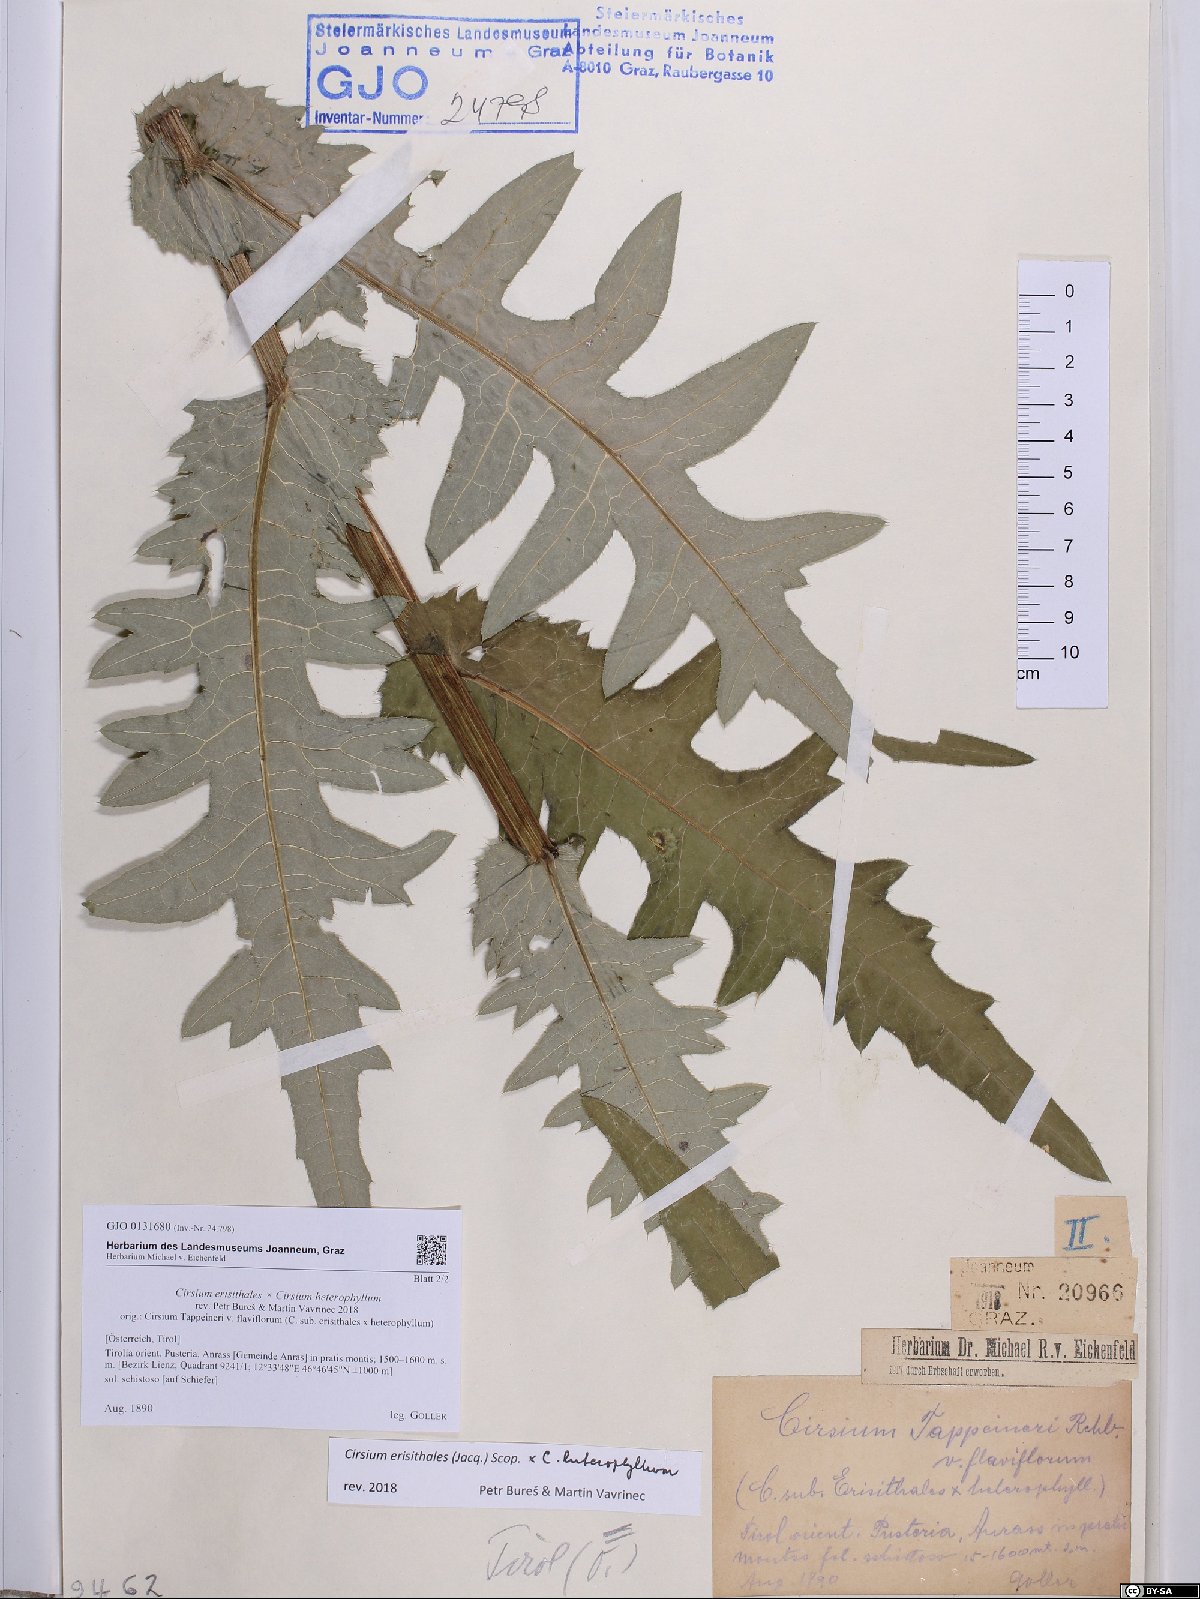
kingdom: Plantae
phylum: Tracheophyta
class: Magnoliopsida
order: Asterales
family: Asteraceae
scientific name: Asteraceae
